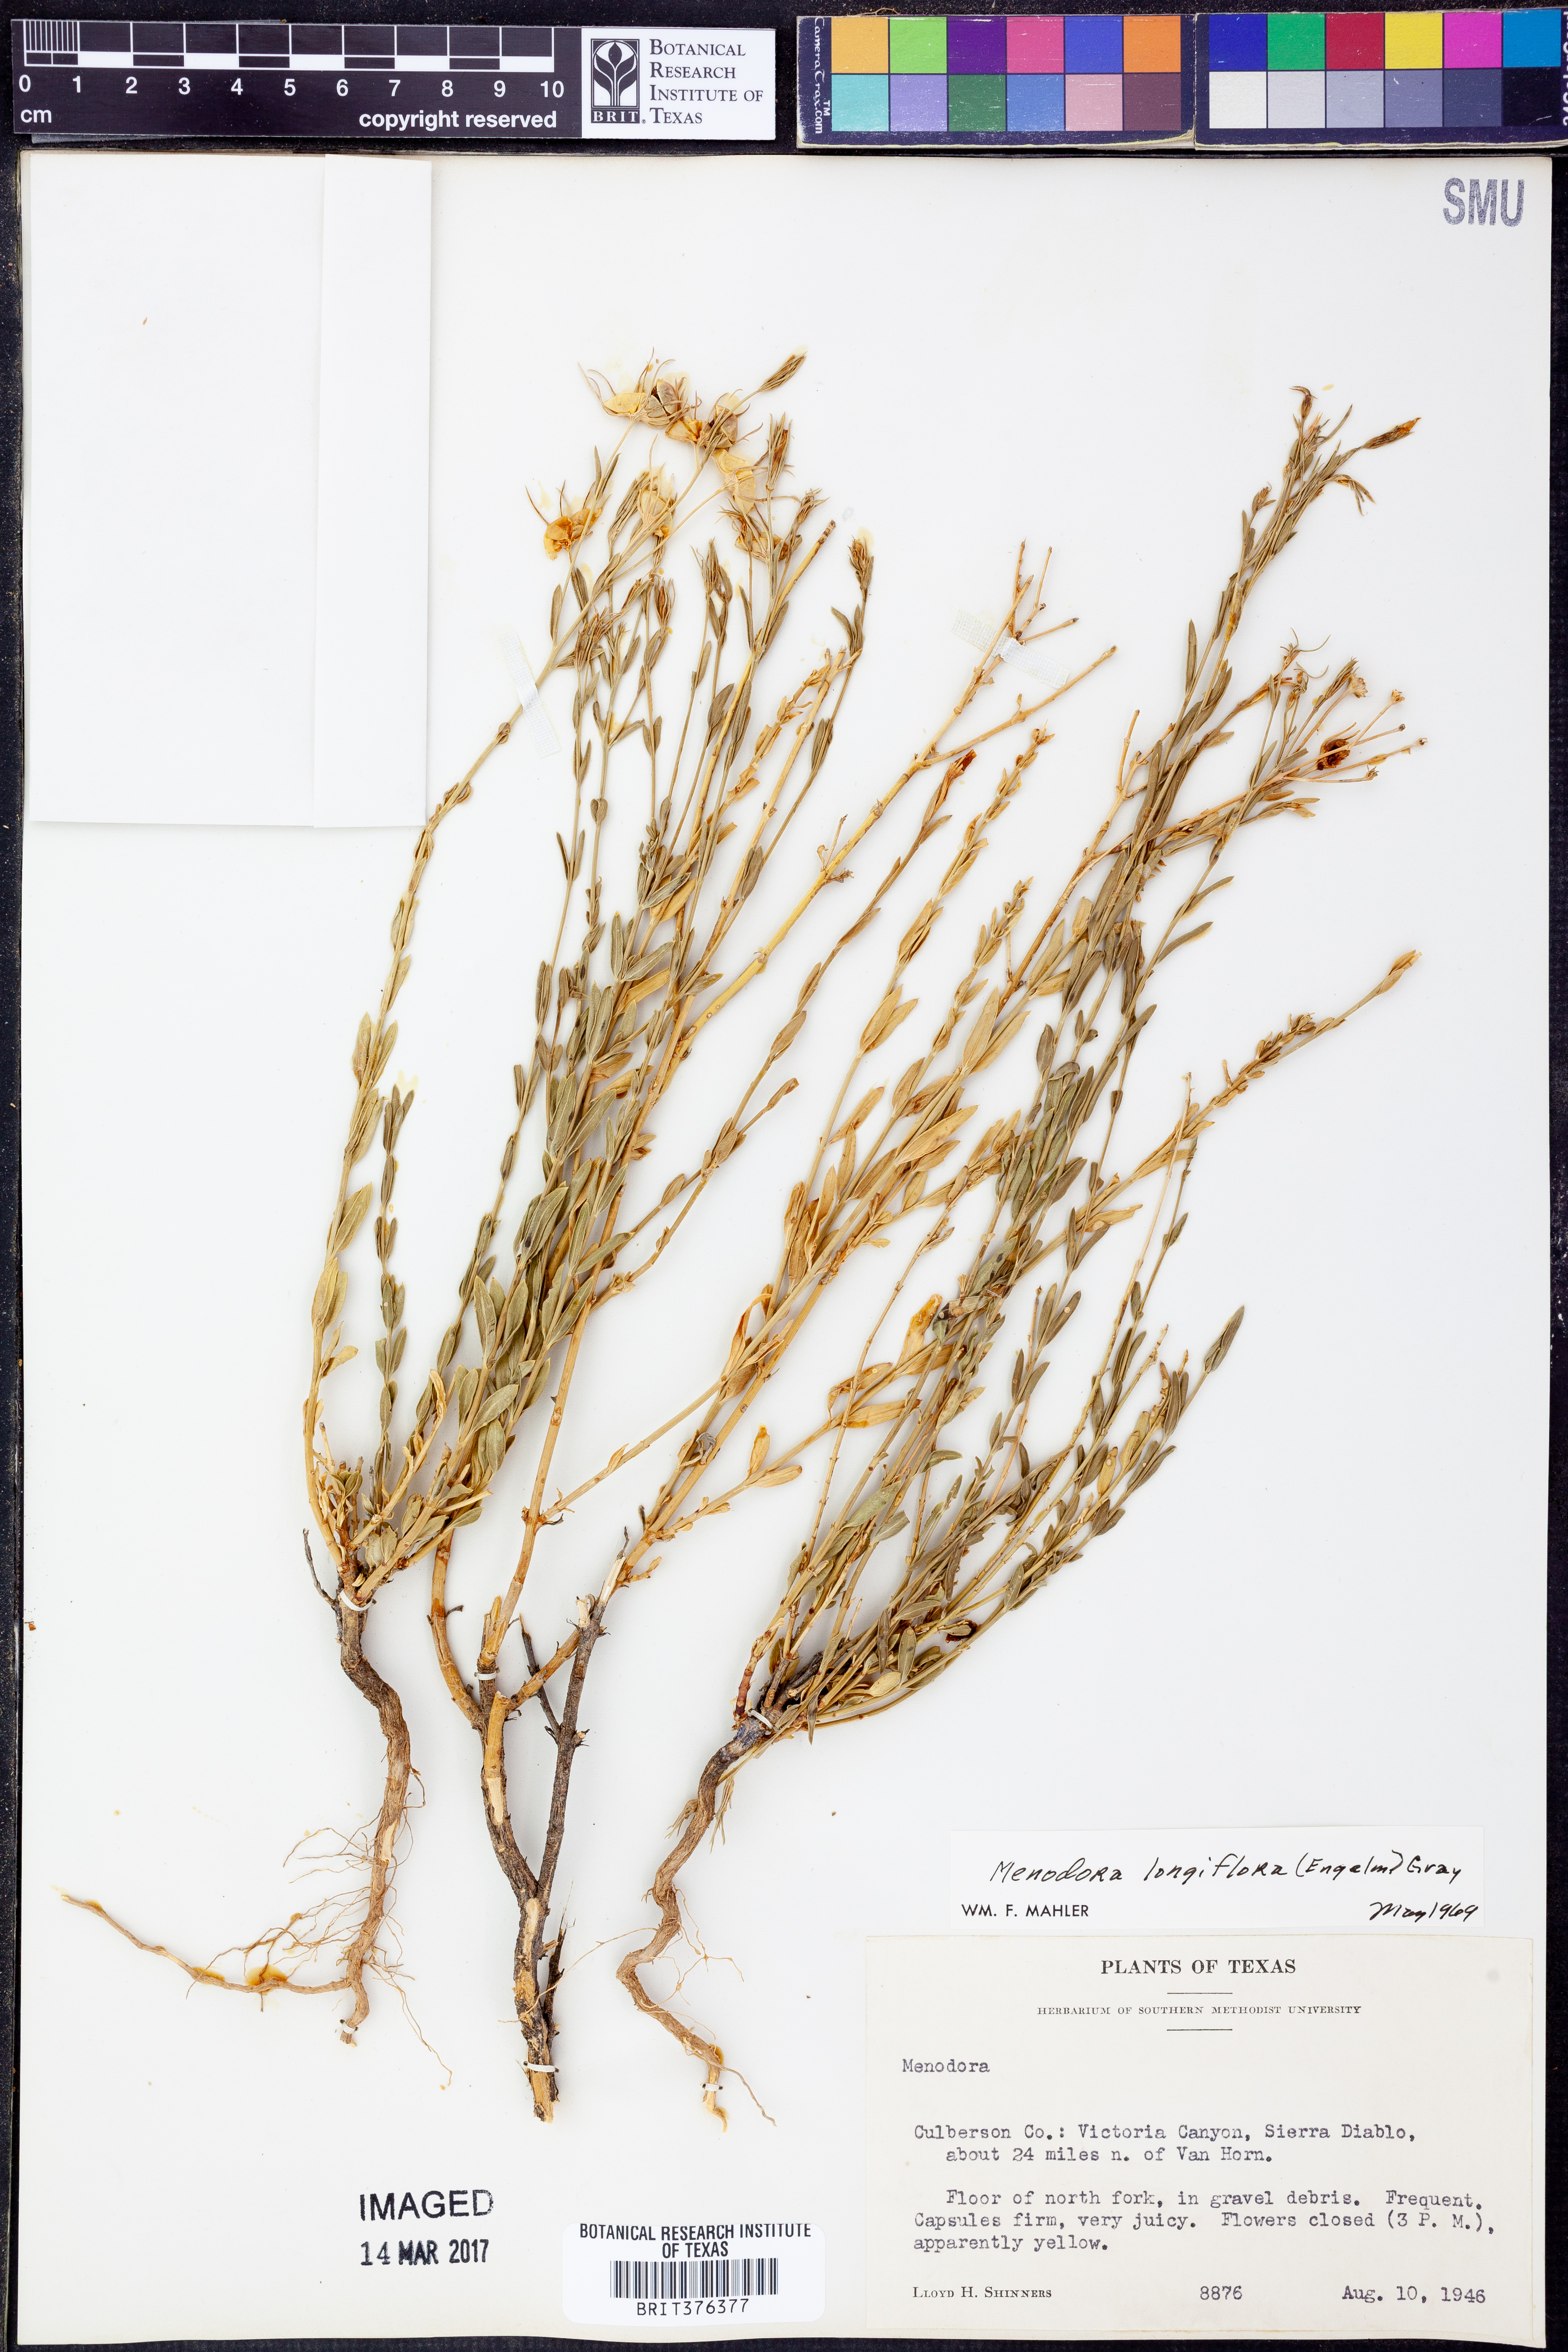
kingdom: Plantae
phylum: Tracheophyta
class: Magnoliopsida
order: Lamiales
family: Oleaceae
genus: Menodora
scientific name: Menodora longiflora
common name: Showy menodora
